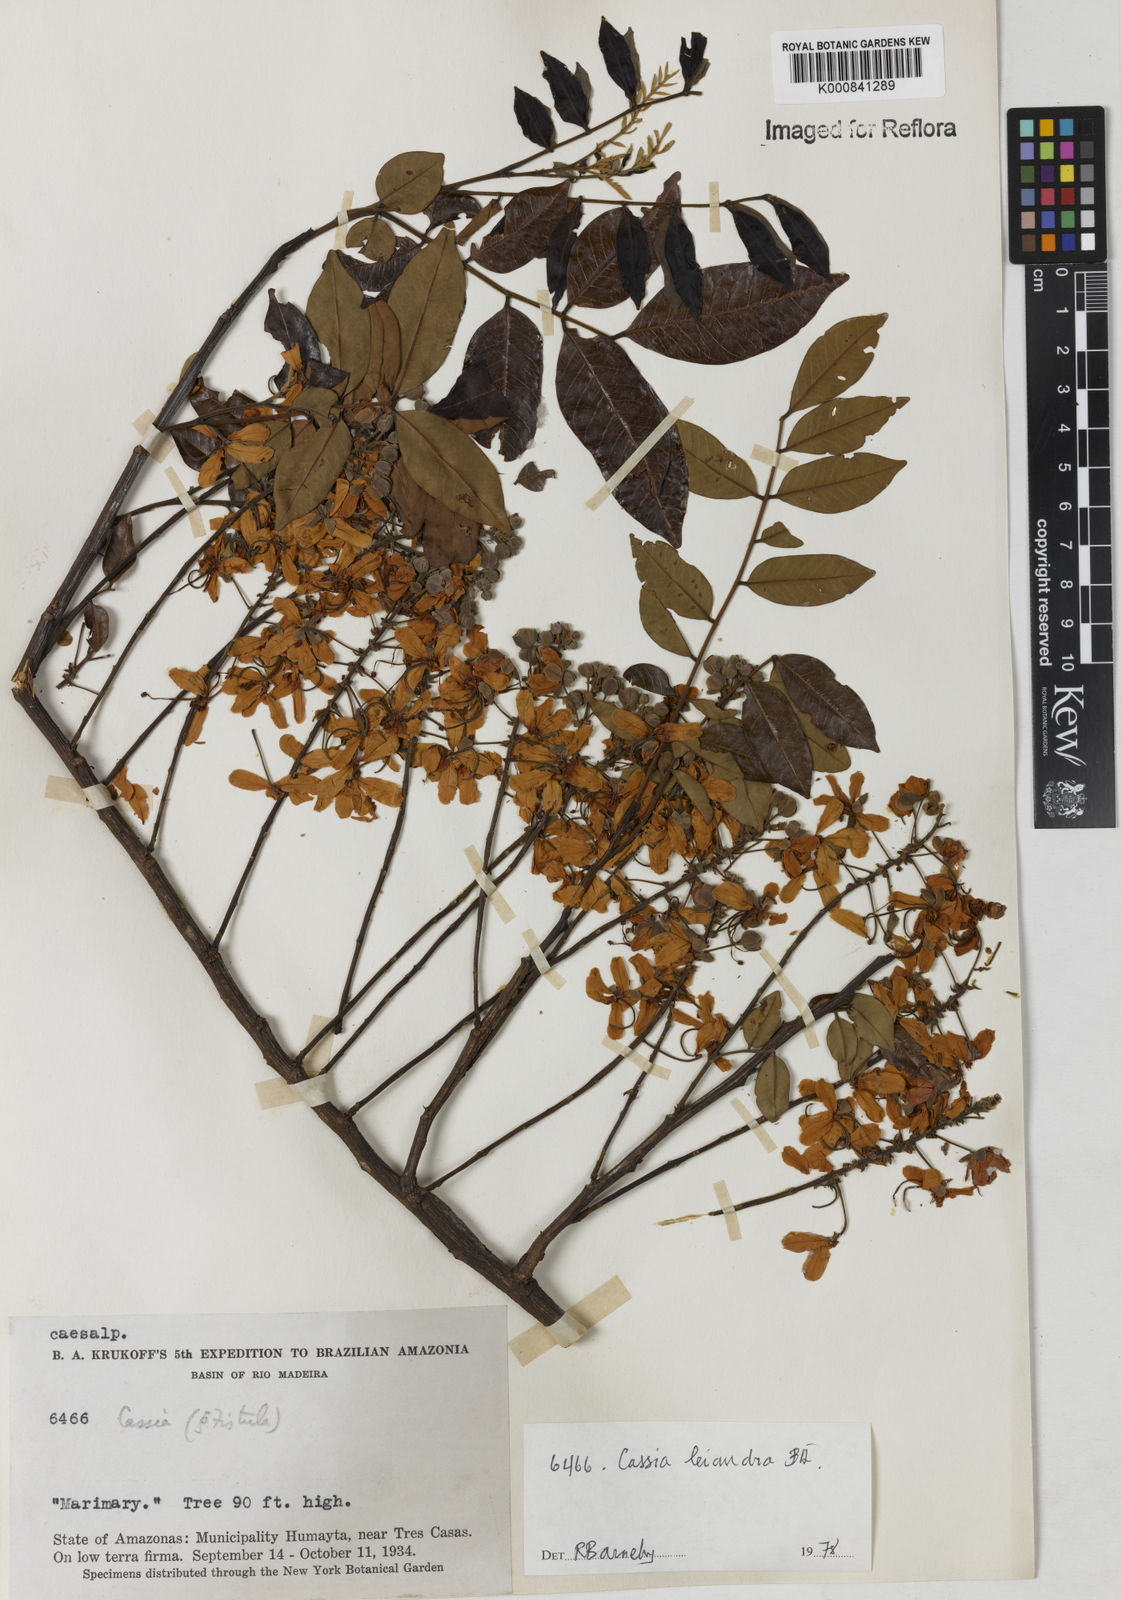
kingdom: Plantae
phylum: Tracheophyta
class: Magnoliopsida
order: Fabales
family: Fabaceae
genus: Cassia
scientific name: Cassia leiandra
